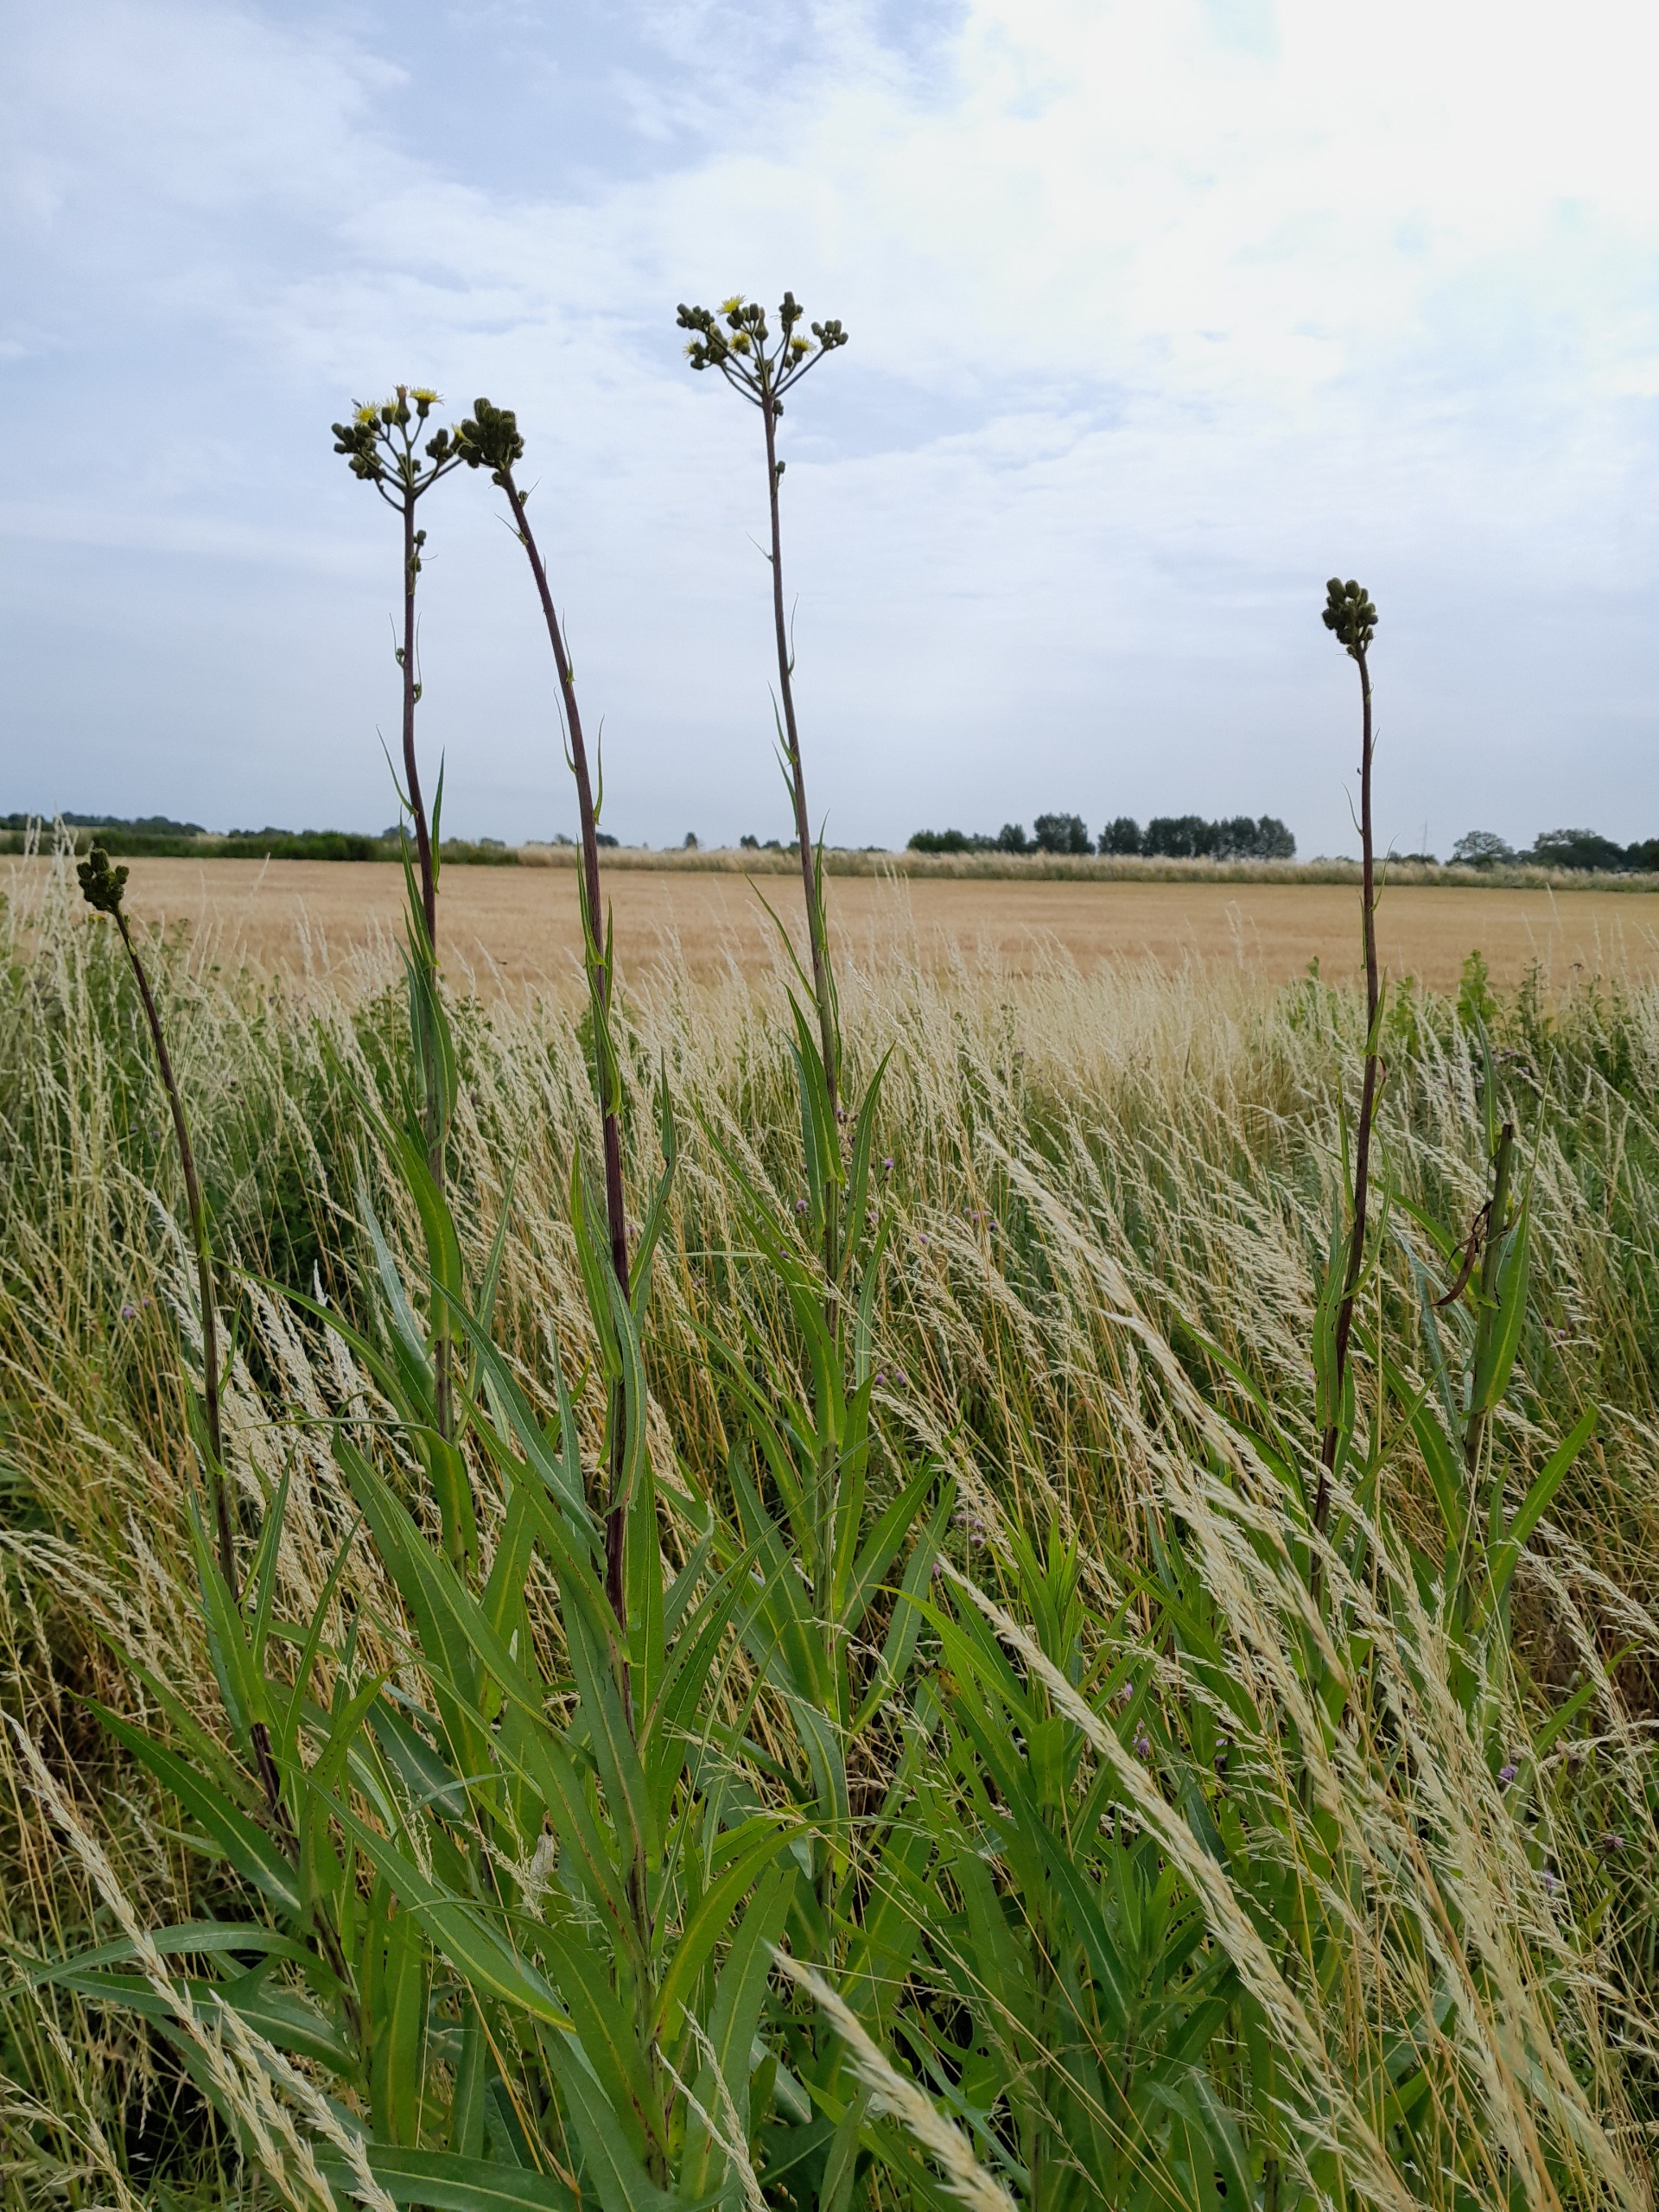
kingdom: Plantae
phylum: Tracheophyta
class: Magnoliopsida
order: Asterales
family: Asteraceae
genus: Sonchus
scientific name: Sonchus palustris
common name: Kær-svinemælk
